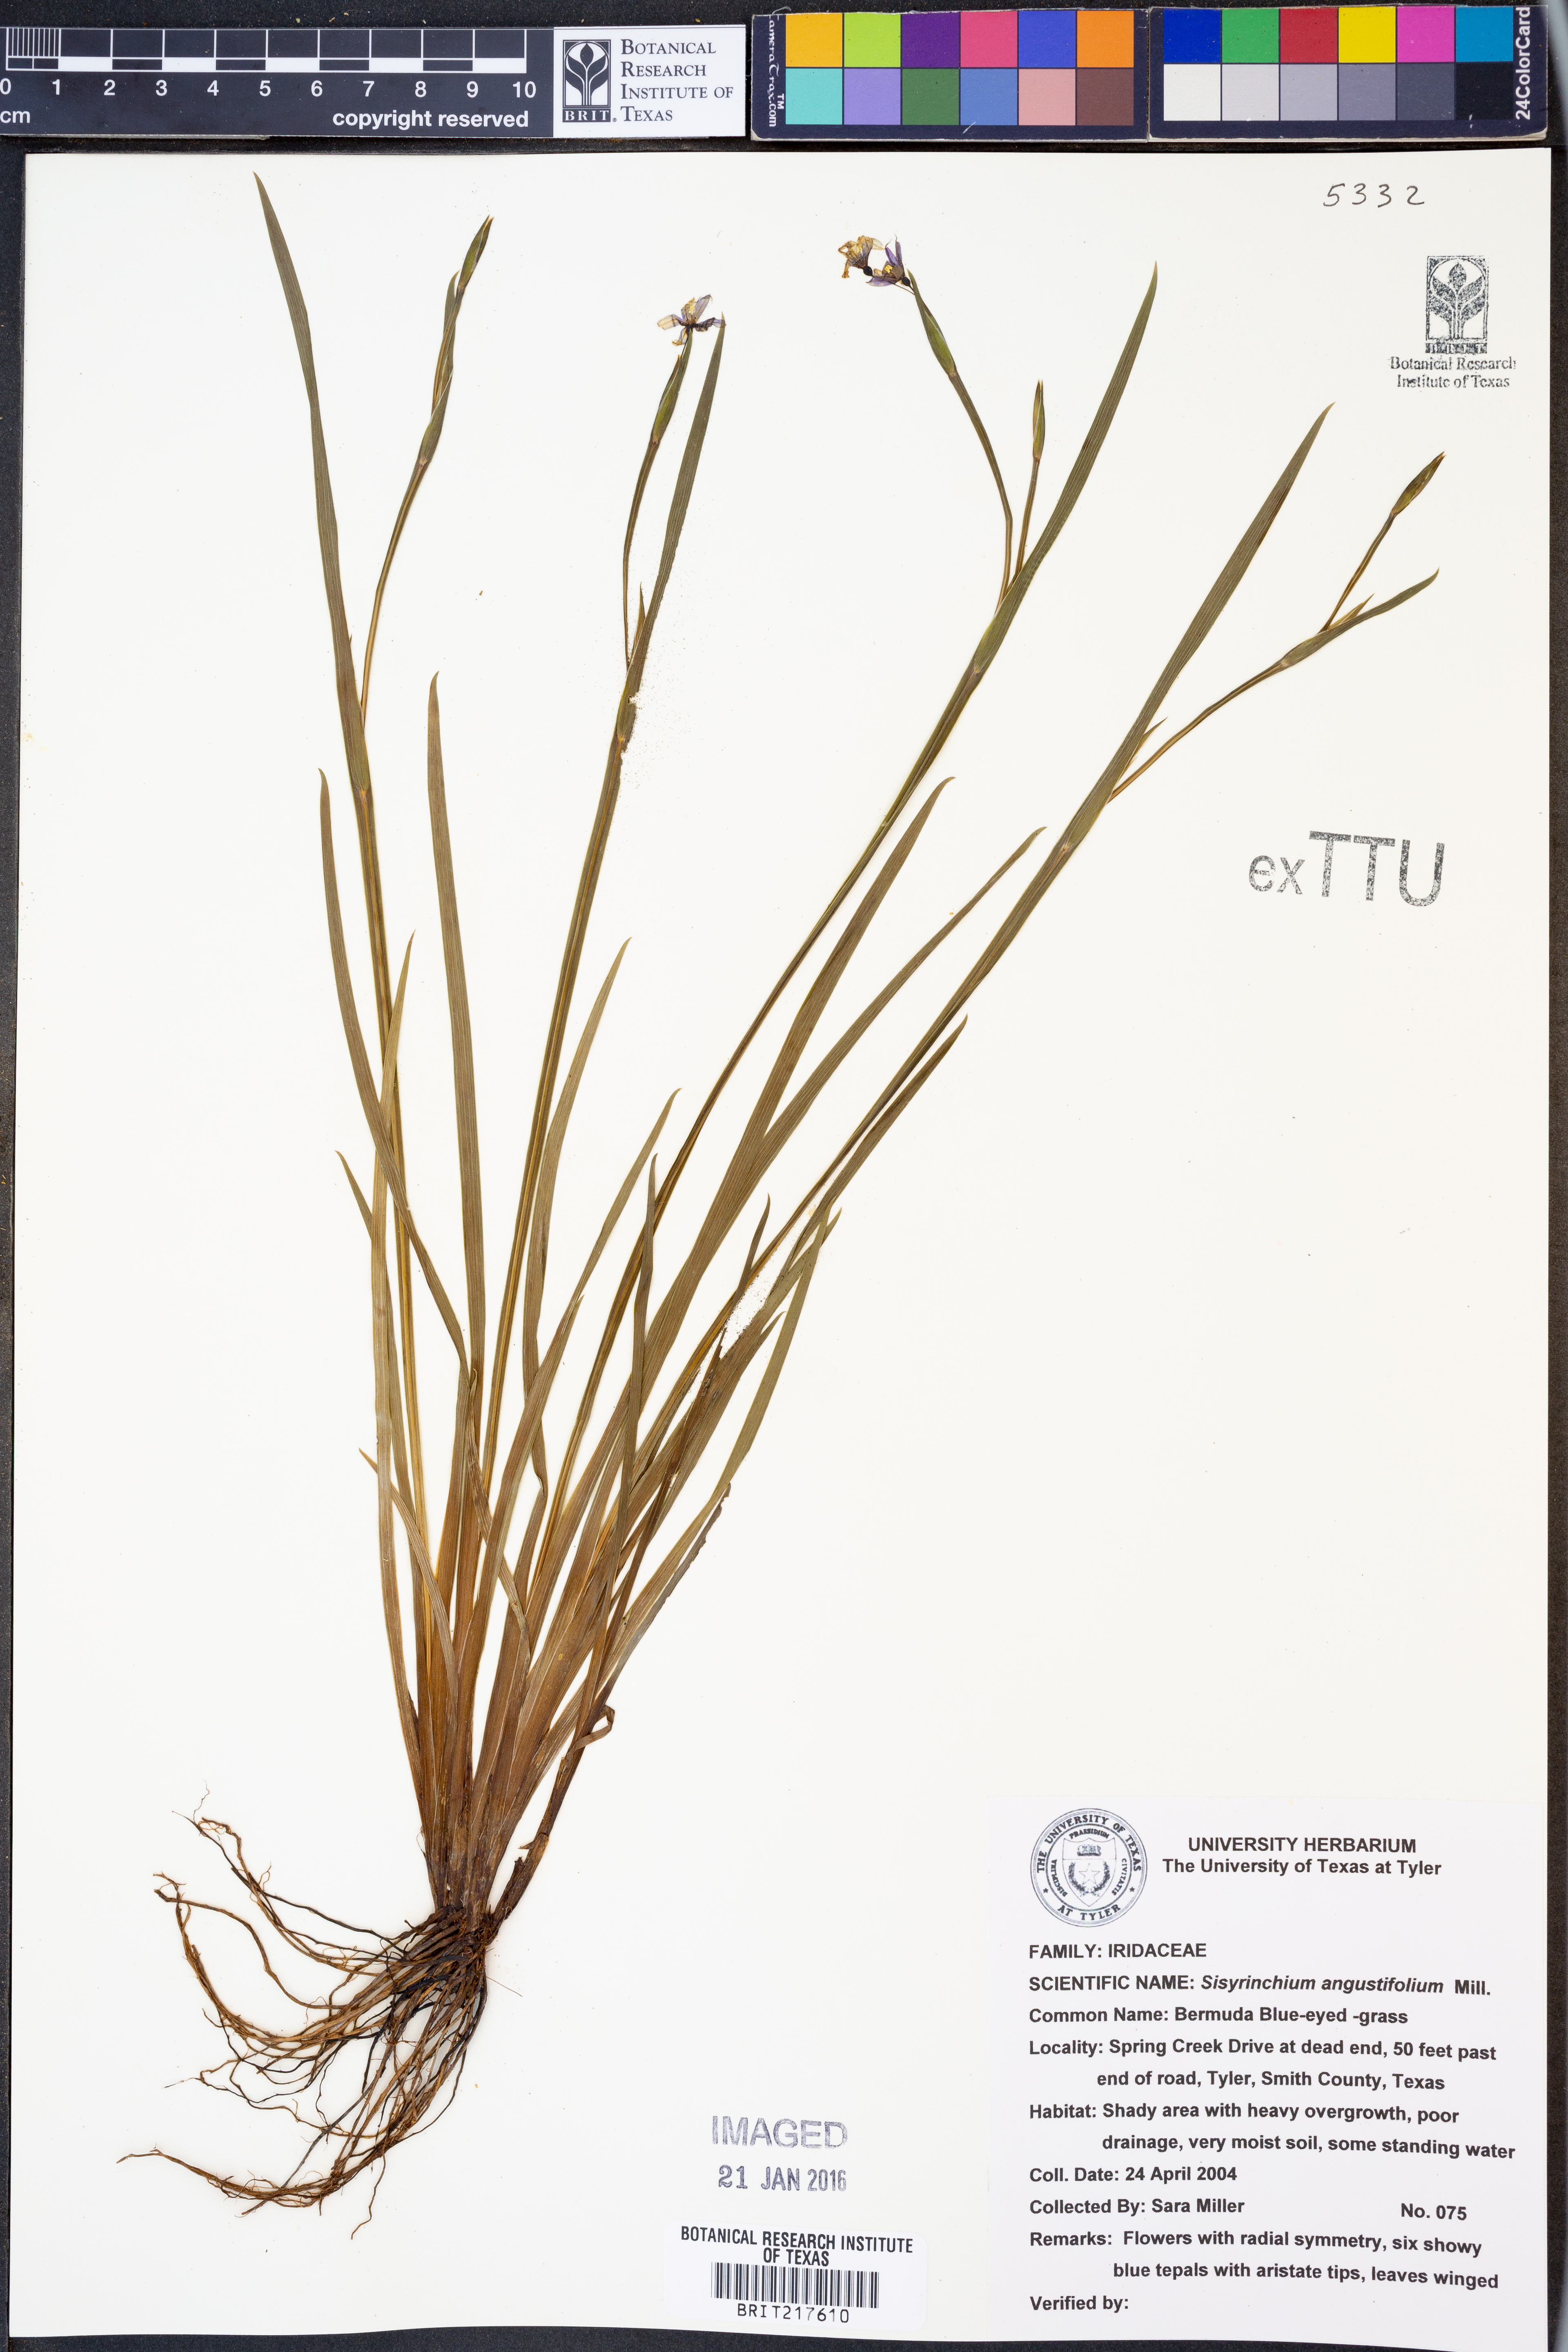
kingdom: Plantae
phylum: Tracheophyta
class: Liliopsida
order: Asparagales
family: Iridaceae
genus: Sisyrinchium
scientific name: Sisyrinchium angustifolium
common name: Narrow-leaf blue-eyed-grass
